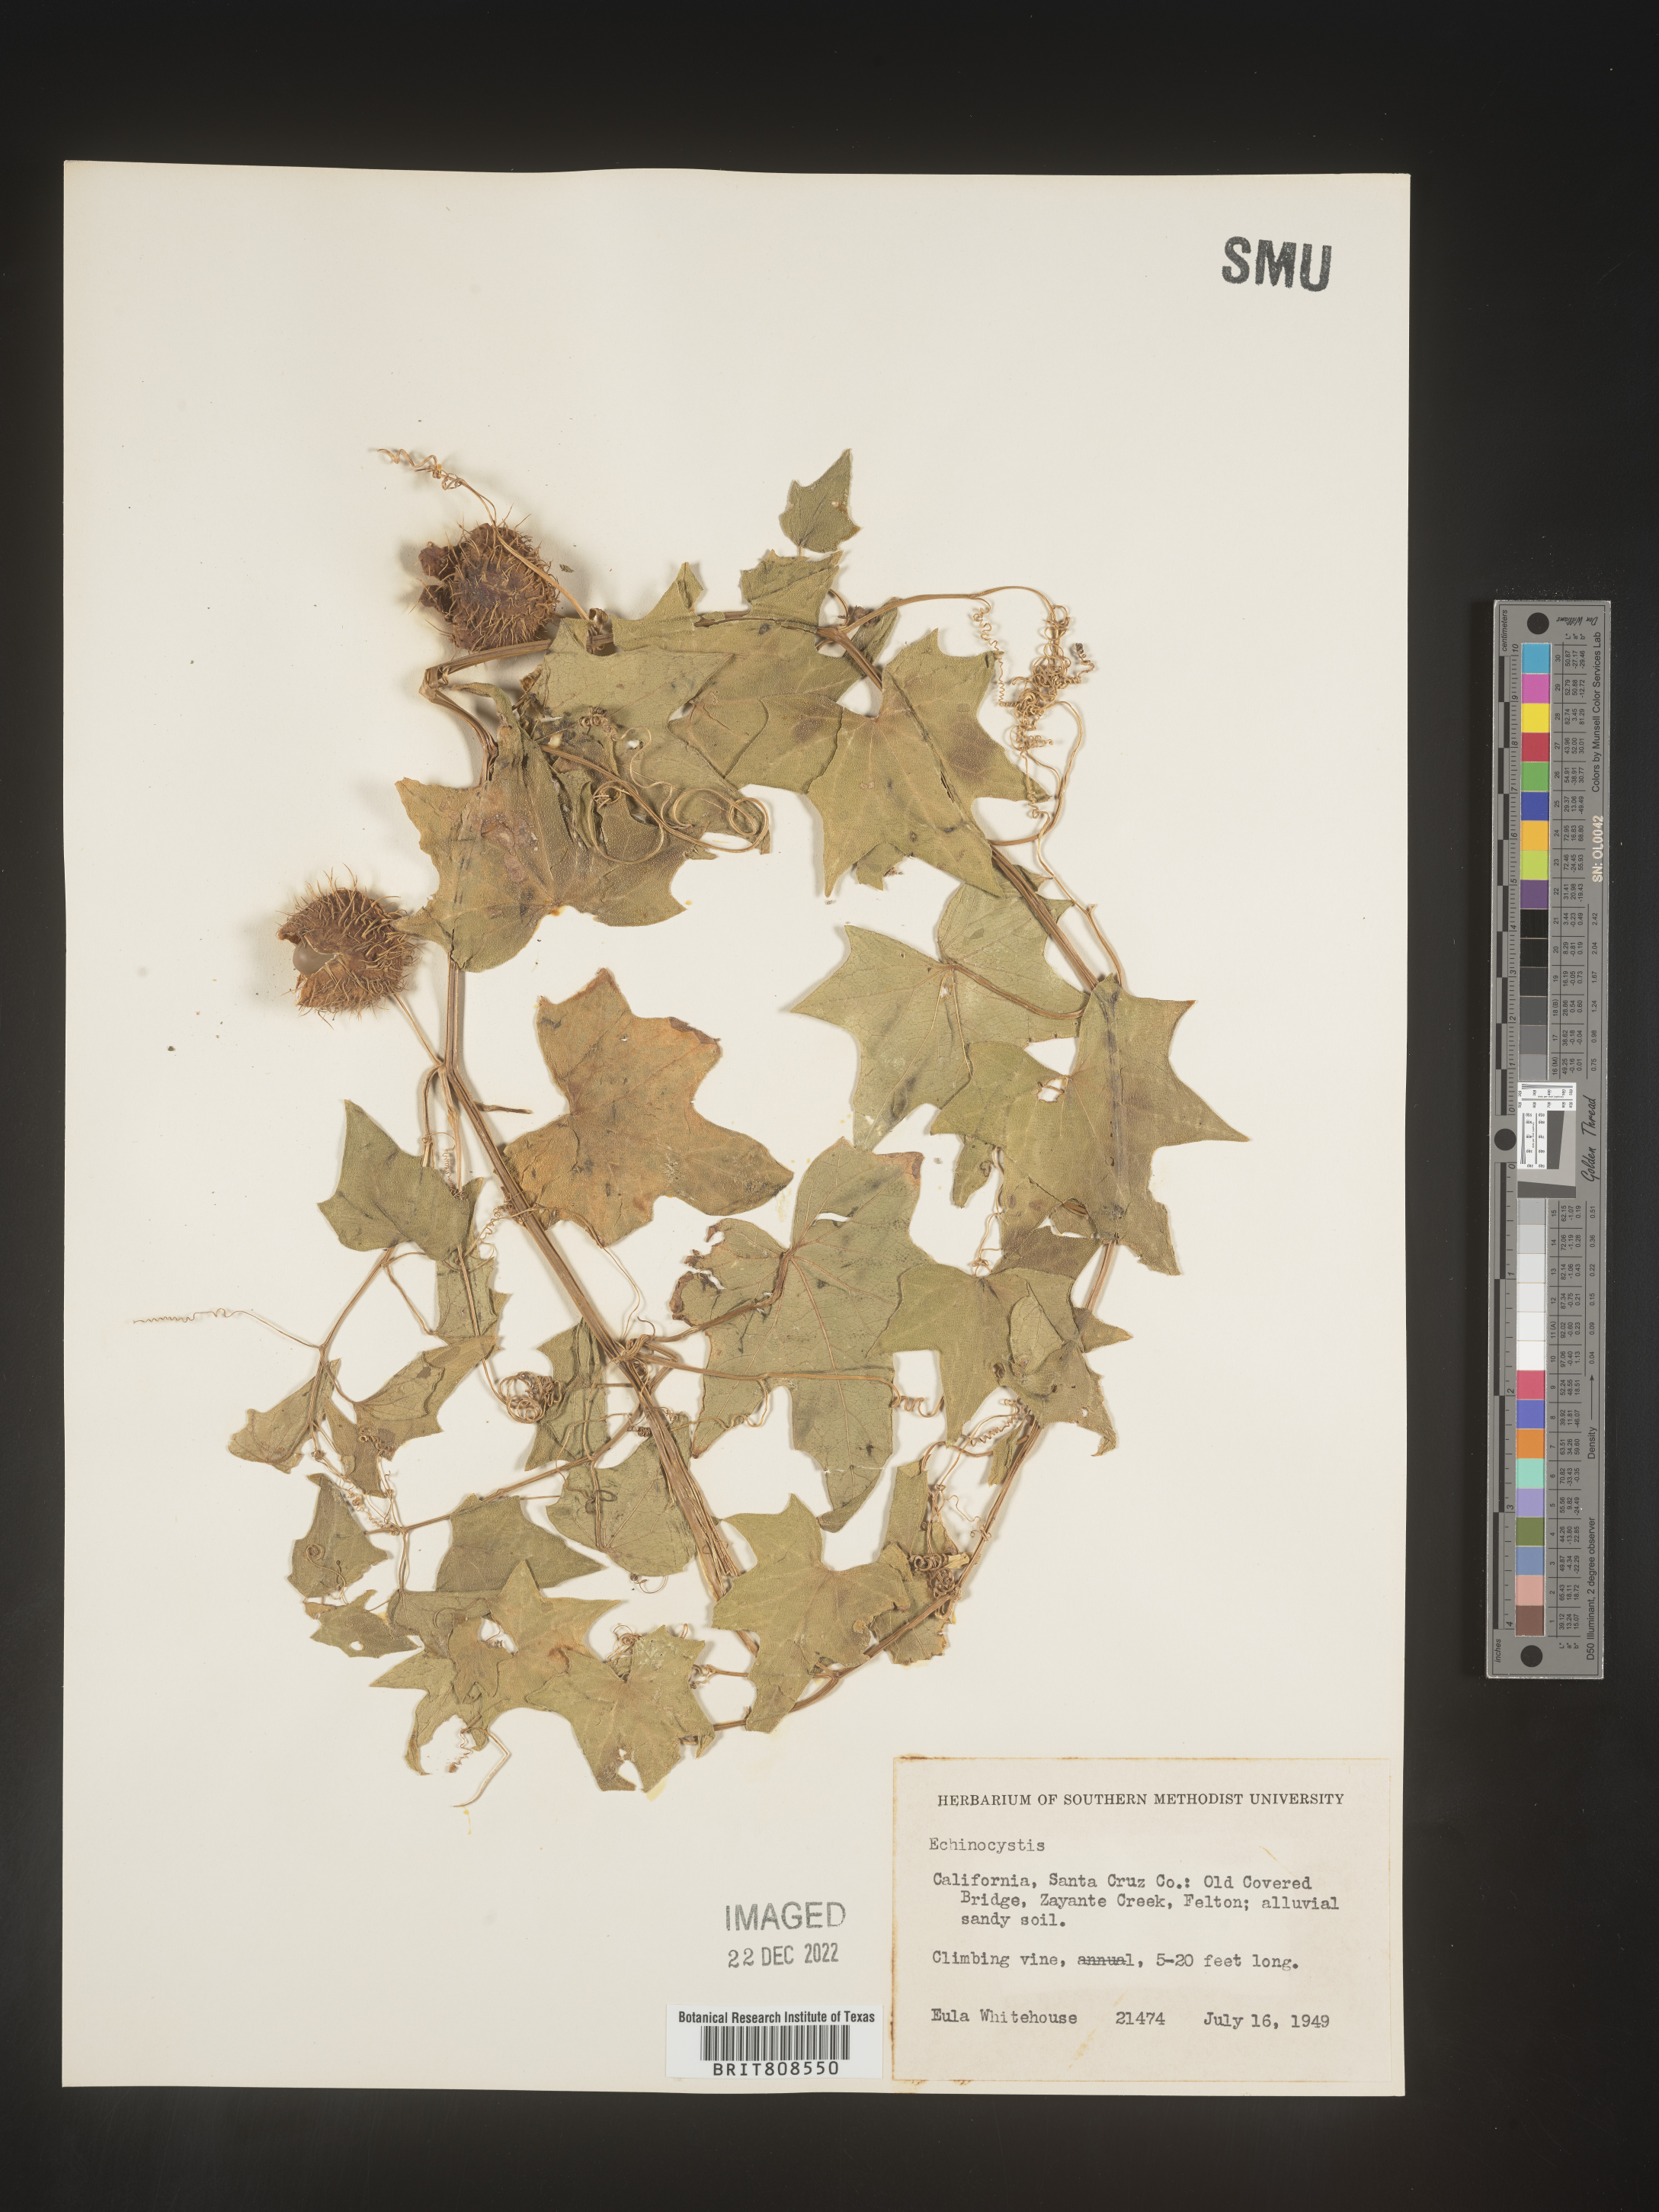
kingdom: Plantae
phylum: Tracheophyta
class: Magnoliopsida
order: Cucurbitales
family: Cucurbitaceae
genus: Marah
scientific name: Marah
